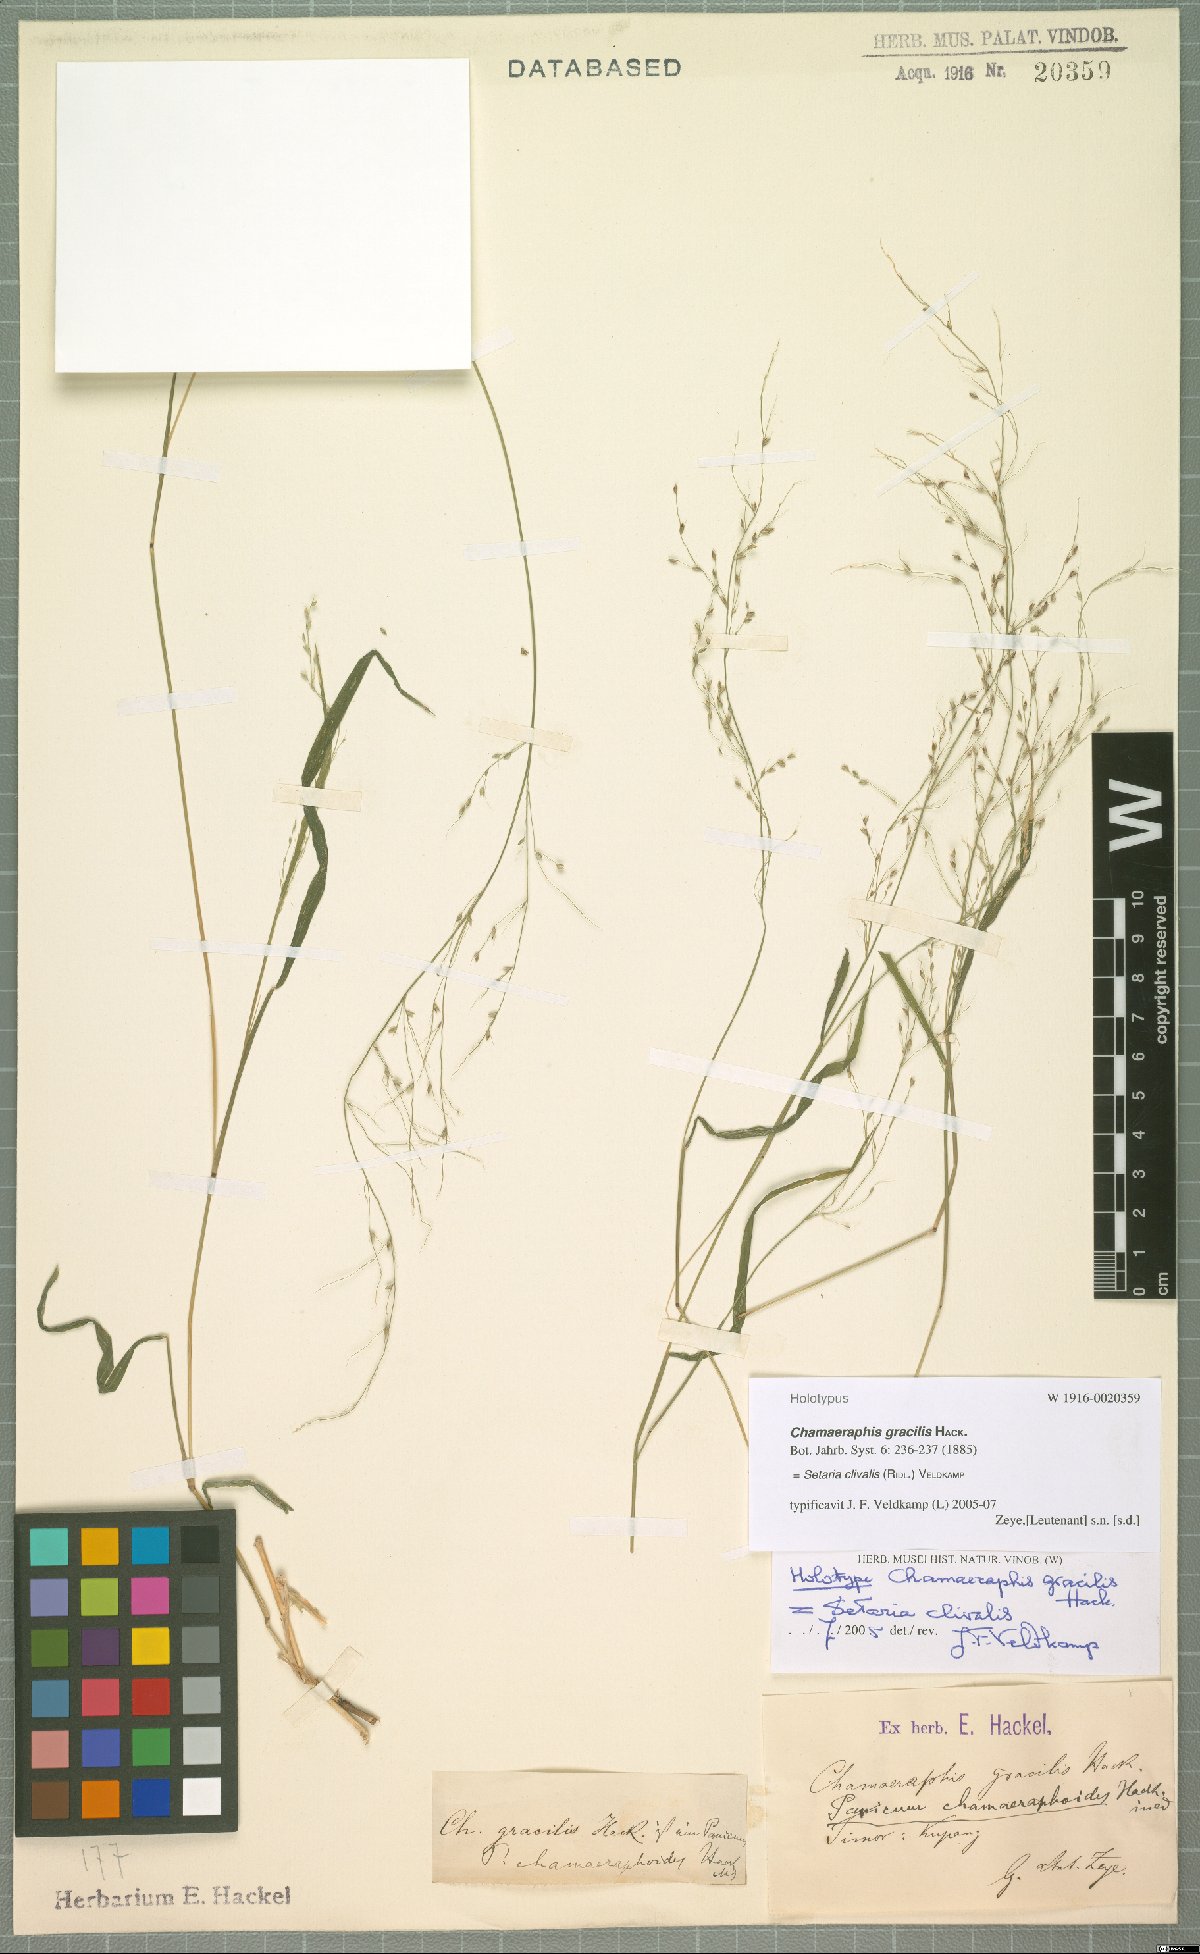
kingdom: Plantae
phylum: Tracheophyta
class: Liliopsida
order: Poales
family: Poaceae
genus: Setaria
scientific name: Setaria clivalis
